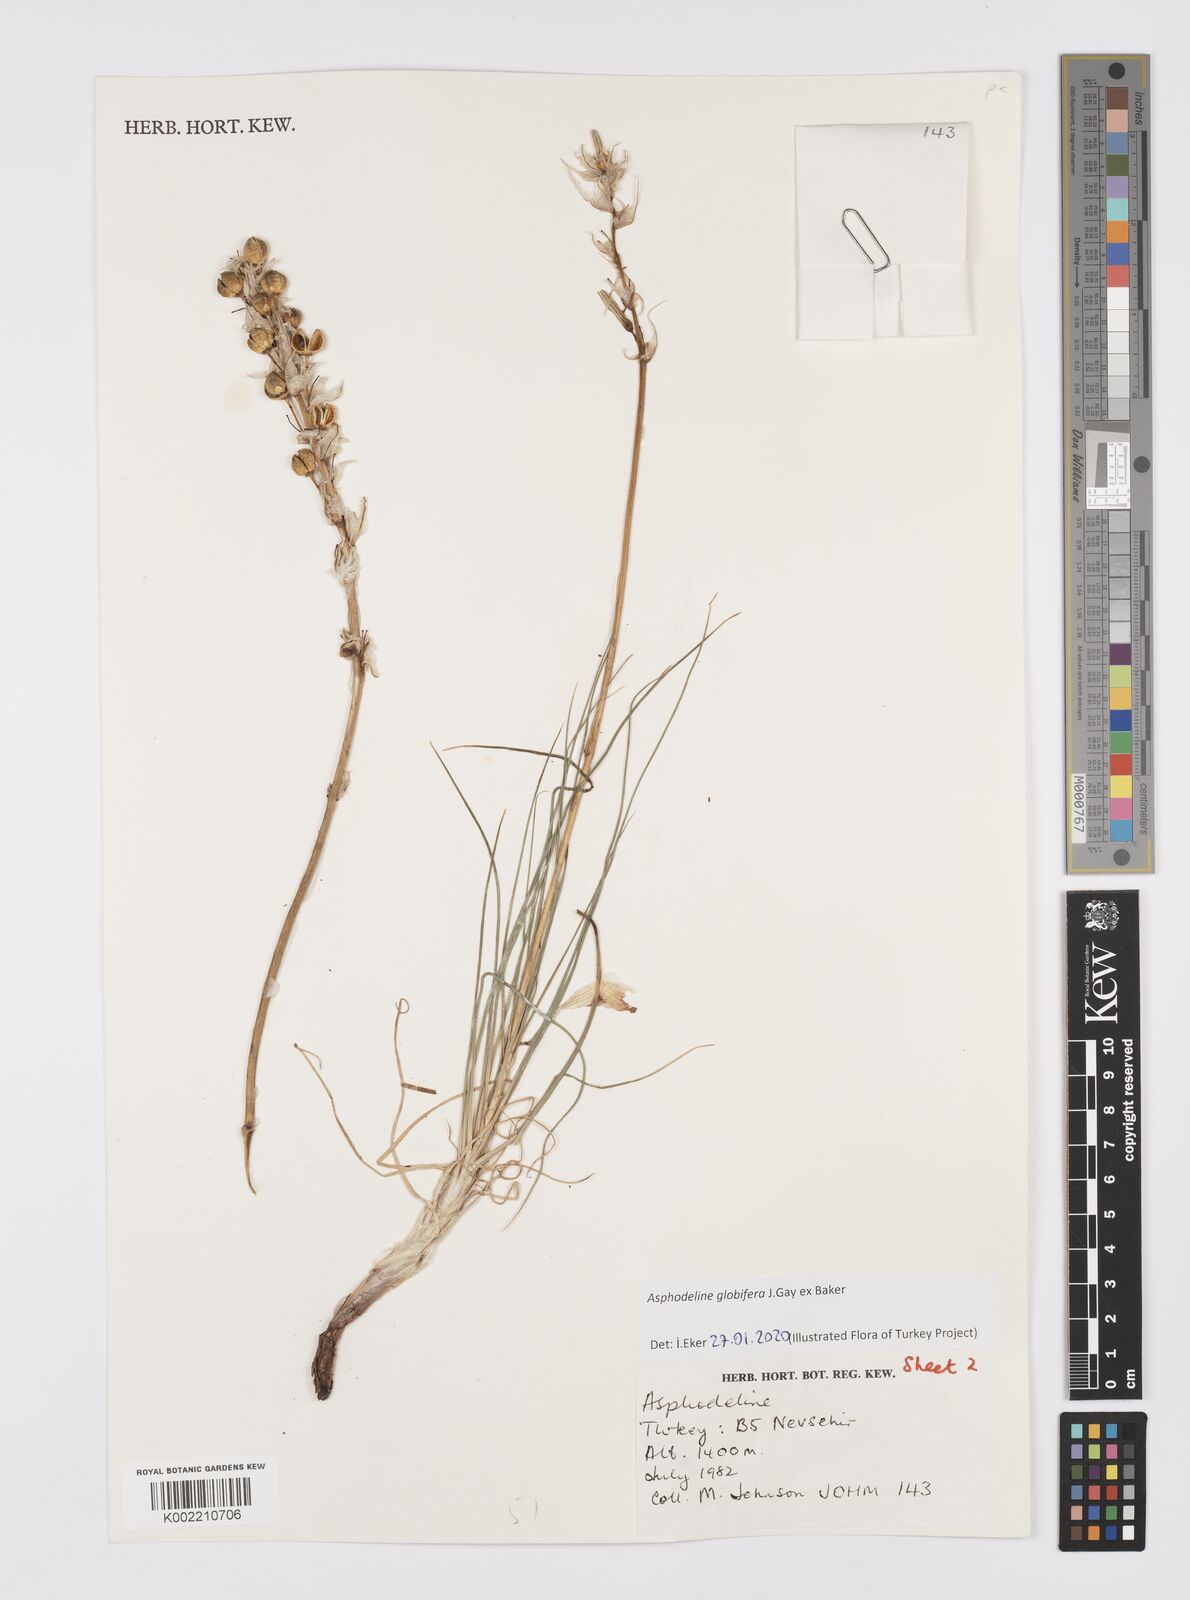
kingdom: Plantae
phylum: Tracheophyta
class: Liliopsida
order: Asparagales
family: Asphodelaceae
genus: Asphodeline
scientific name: Asphodeline globifera
